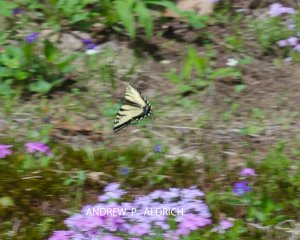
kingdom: Animalia
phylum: Arthropoda
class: Insecta
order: Lepidoptera
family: Papilionidae
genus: Pterourus
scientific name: Pterourus canadensis
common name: Canadian Tiger Swallowtail
